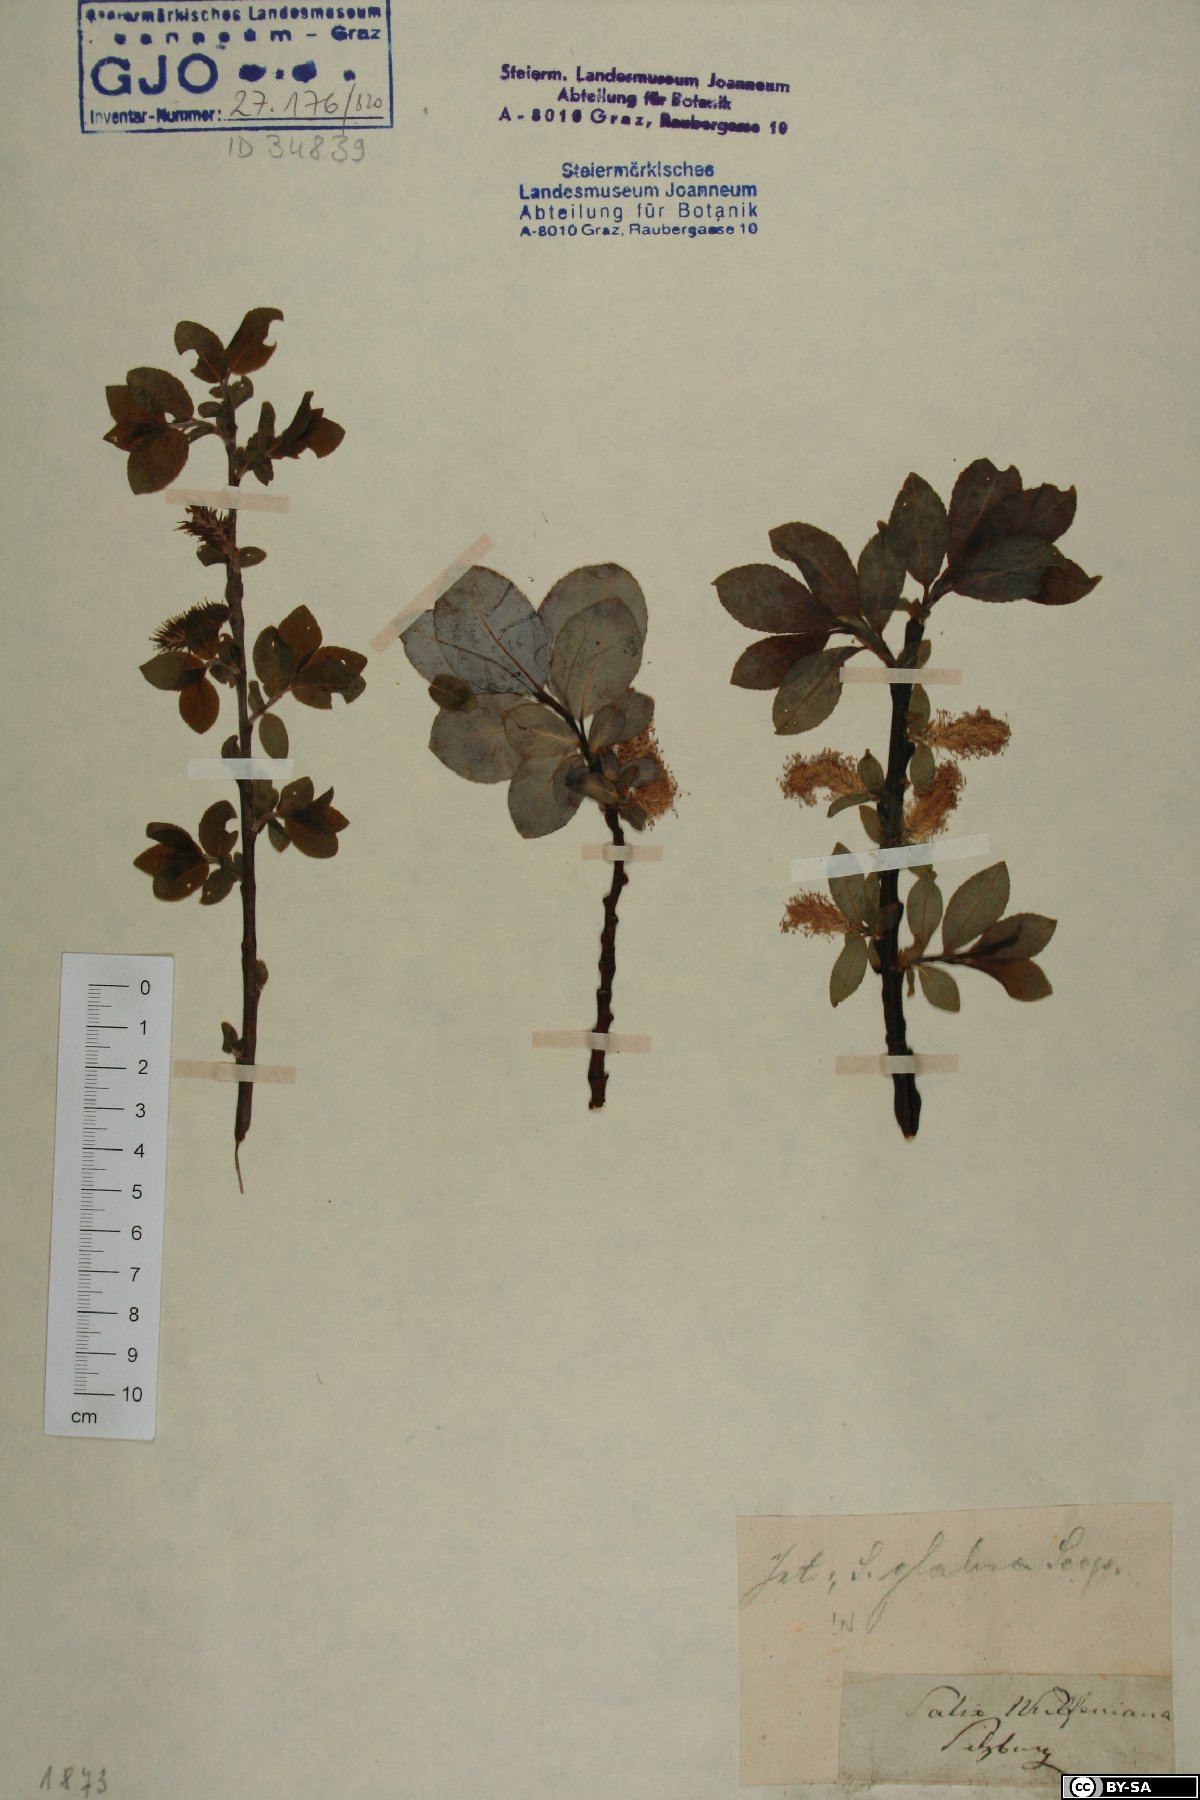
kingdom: Plantae
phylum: Tracheophyta
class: Magnoliopsida
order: Malpighiales
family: Salicaceae
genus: Salix
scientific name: Salix glabra
